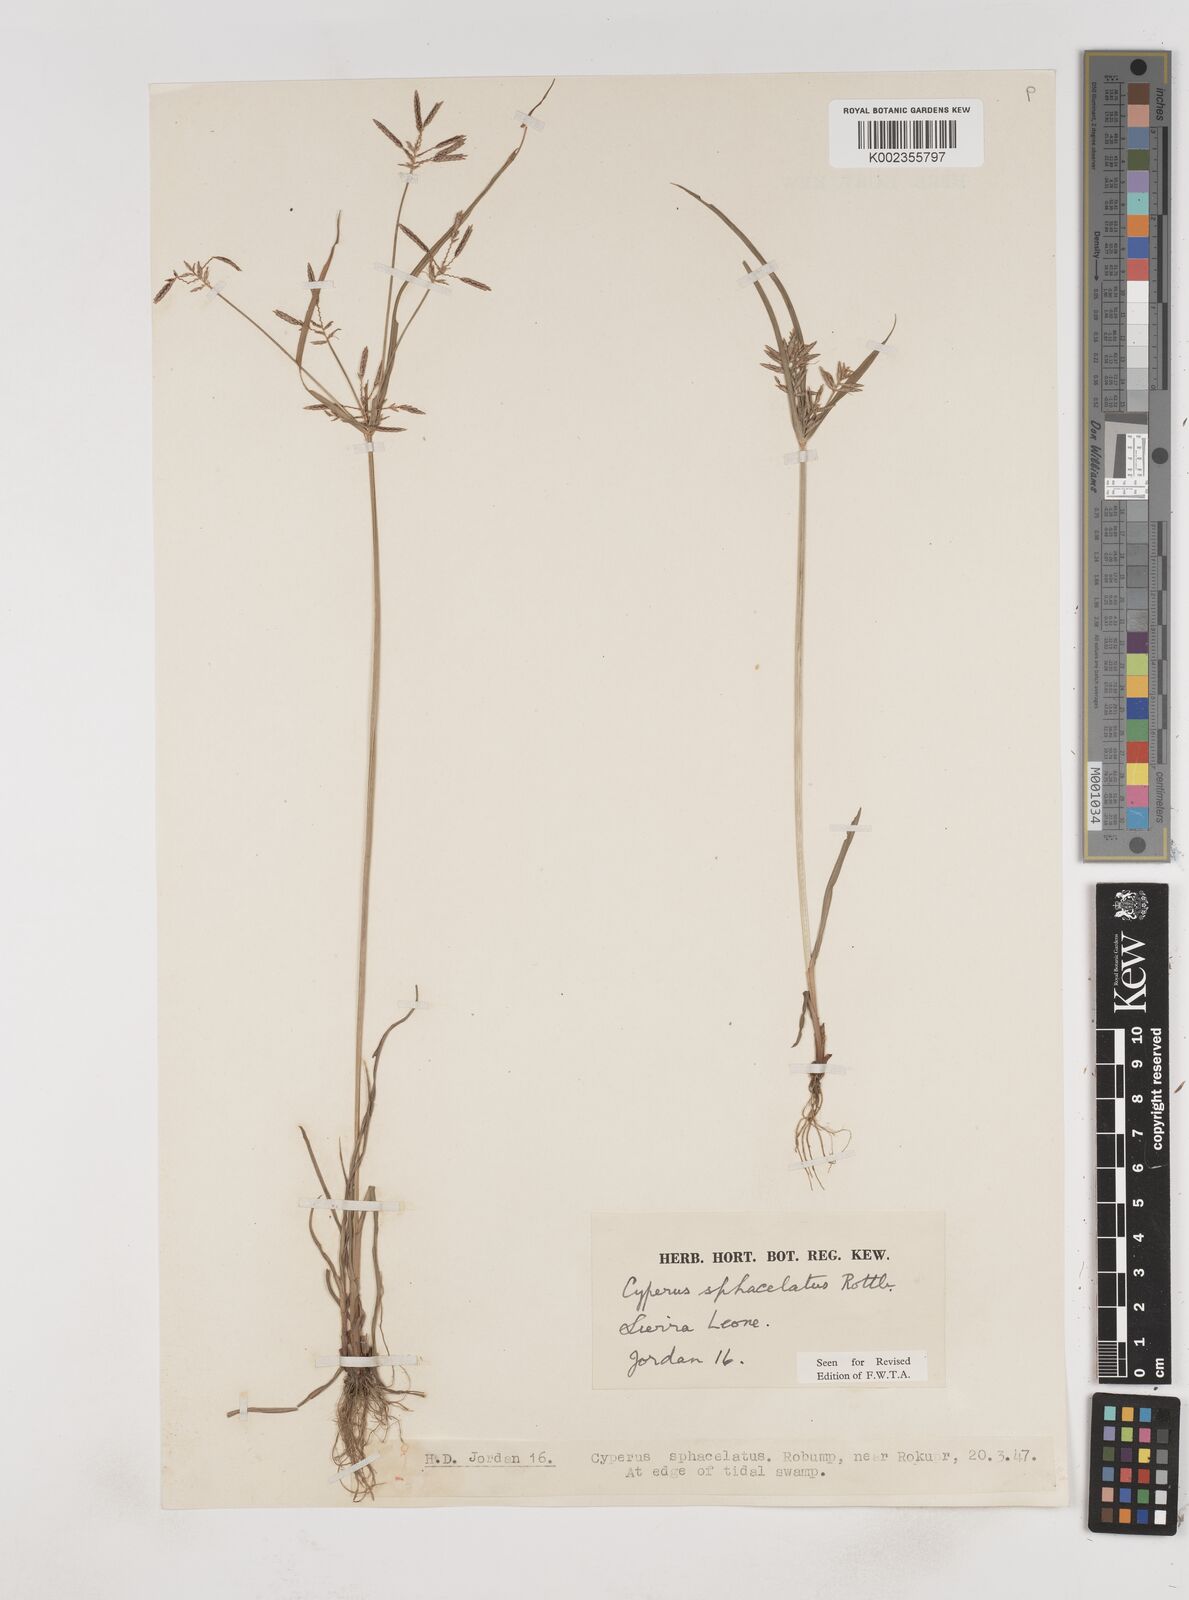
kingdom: Plantae
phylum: Tracheophyta
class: Liliopsida
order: Poales
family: Cyperaceae
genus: Cyperus
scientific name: Cyperus sphacelatus
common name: Roadside flatsedge
